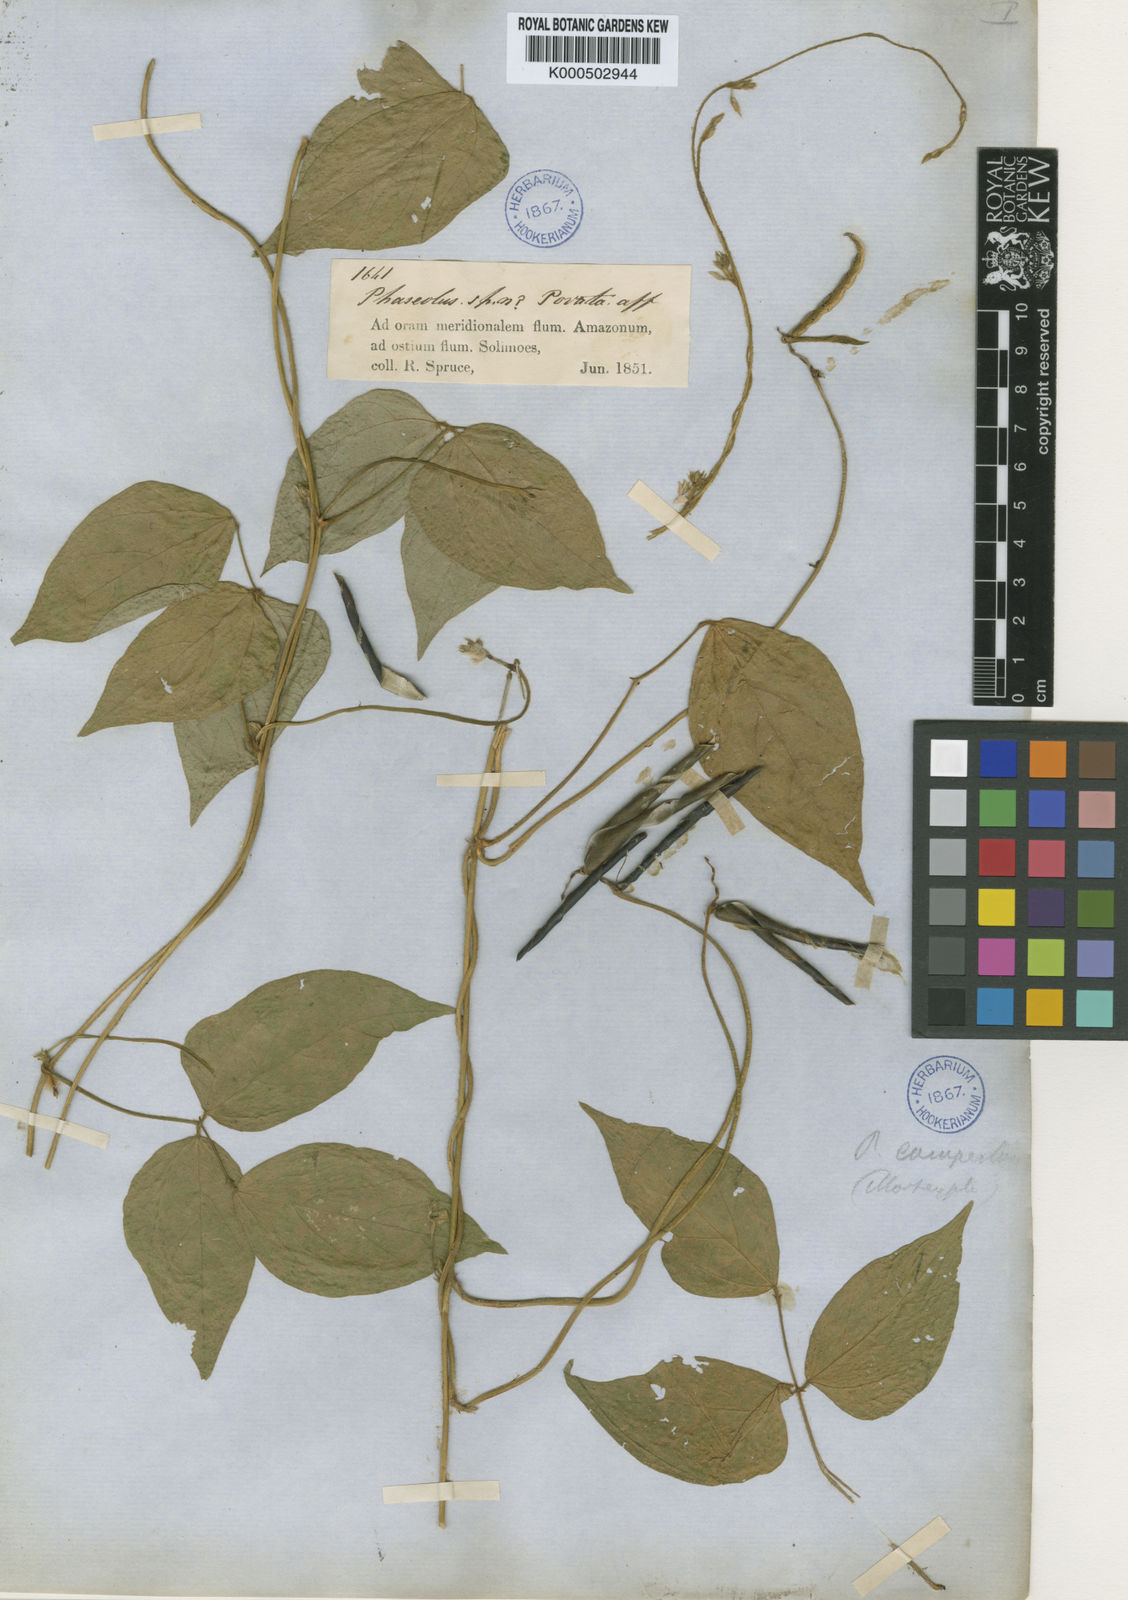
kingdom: Plantae
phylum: Tracheophyta
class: Magnoliopsida
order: Fabales
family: Fabaceae
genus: Vigna
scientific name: Vigna juruana
